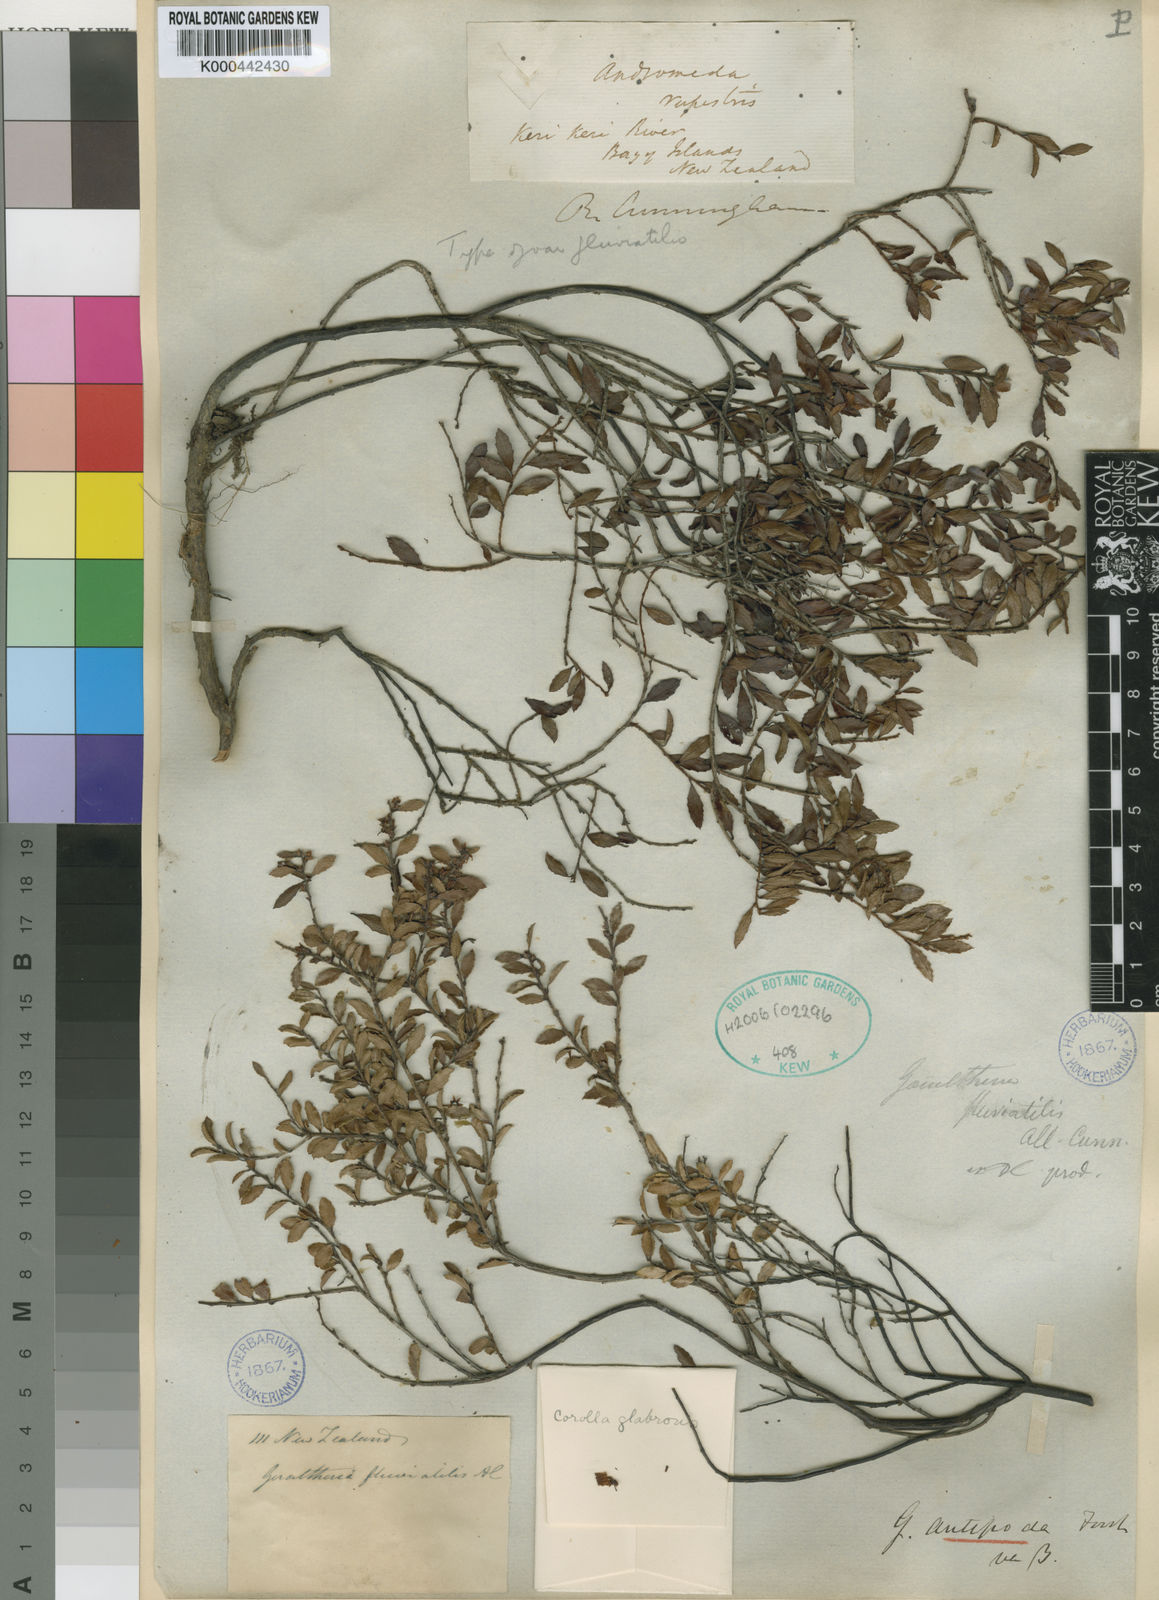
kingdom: Plantae
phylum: Tracheophyta
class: Magnoliopsida
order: Ericales
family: Ericaceae
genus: Gaultheria
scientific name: Gaultheria antipoda
